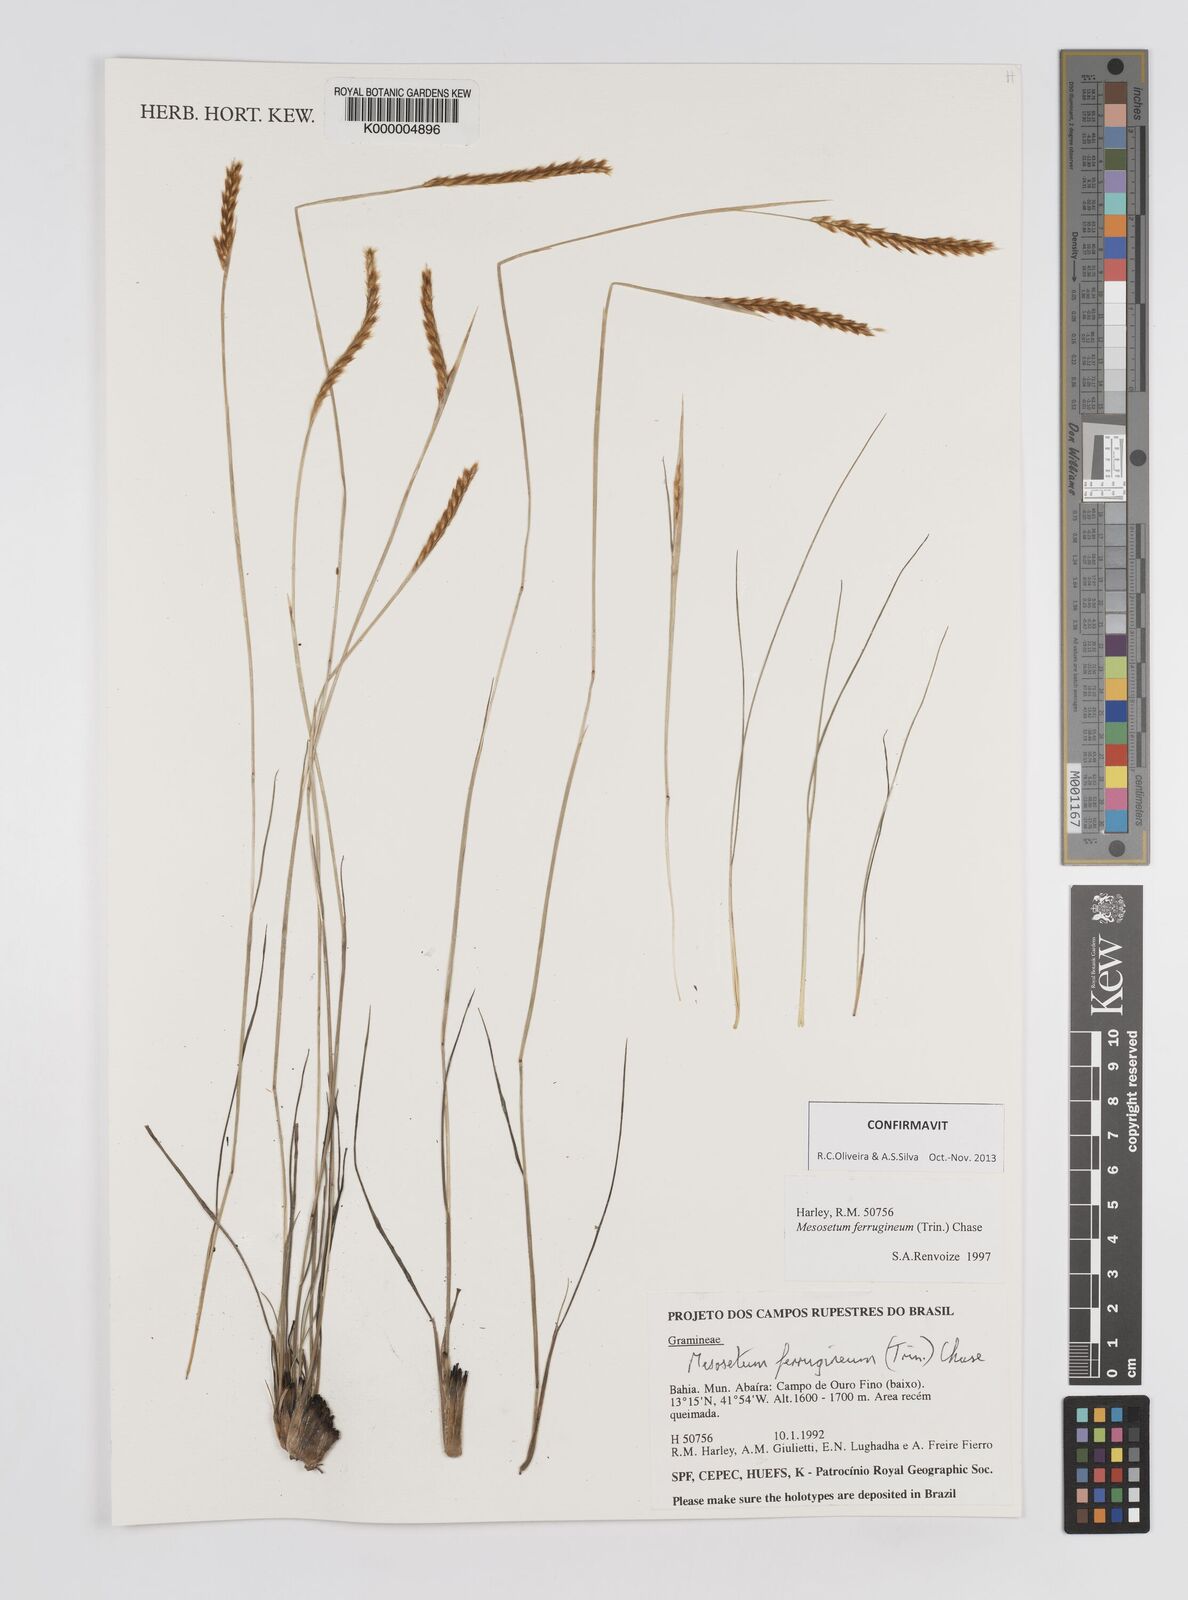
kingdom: Plantae
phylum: Tracheophyta
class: Liliopsida
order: Poales
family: Poaceae
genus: Mesosetum
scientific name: Mesosetum ferrugineum
